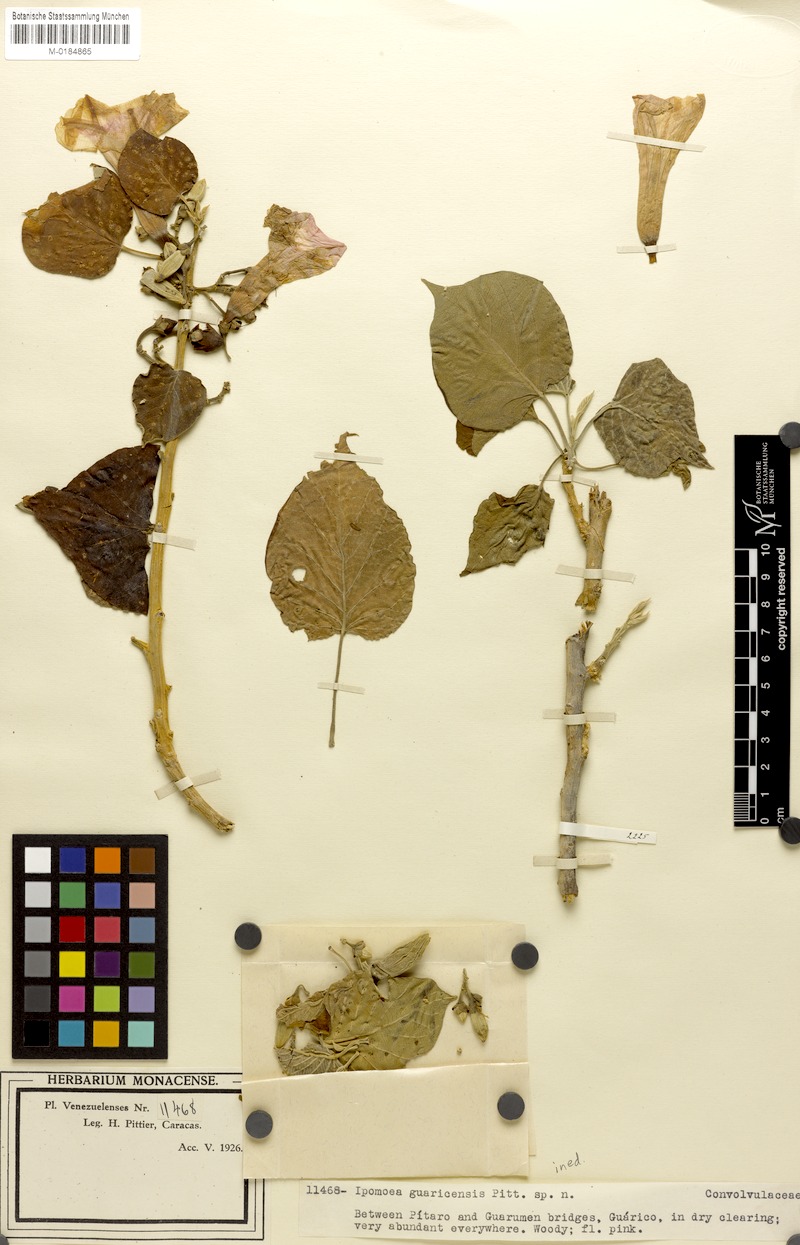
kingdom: Plantae
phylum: Tracheophyta
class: Magnoliopsida
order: Solanales
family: Convolvulaceae
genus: Ipomoea
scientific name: Ipomoea
